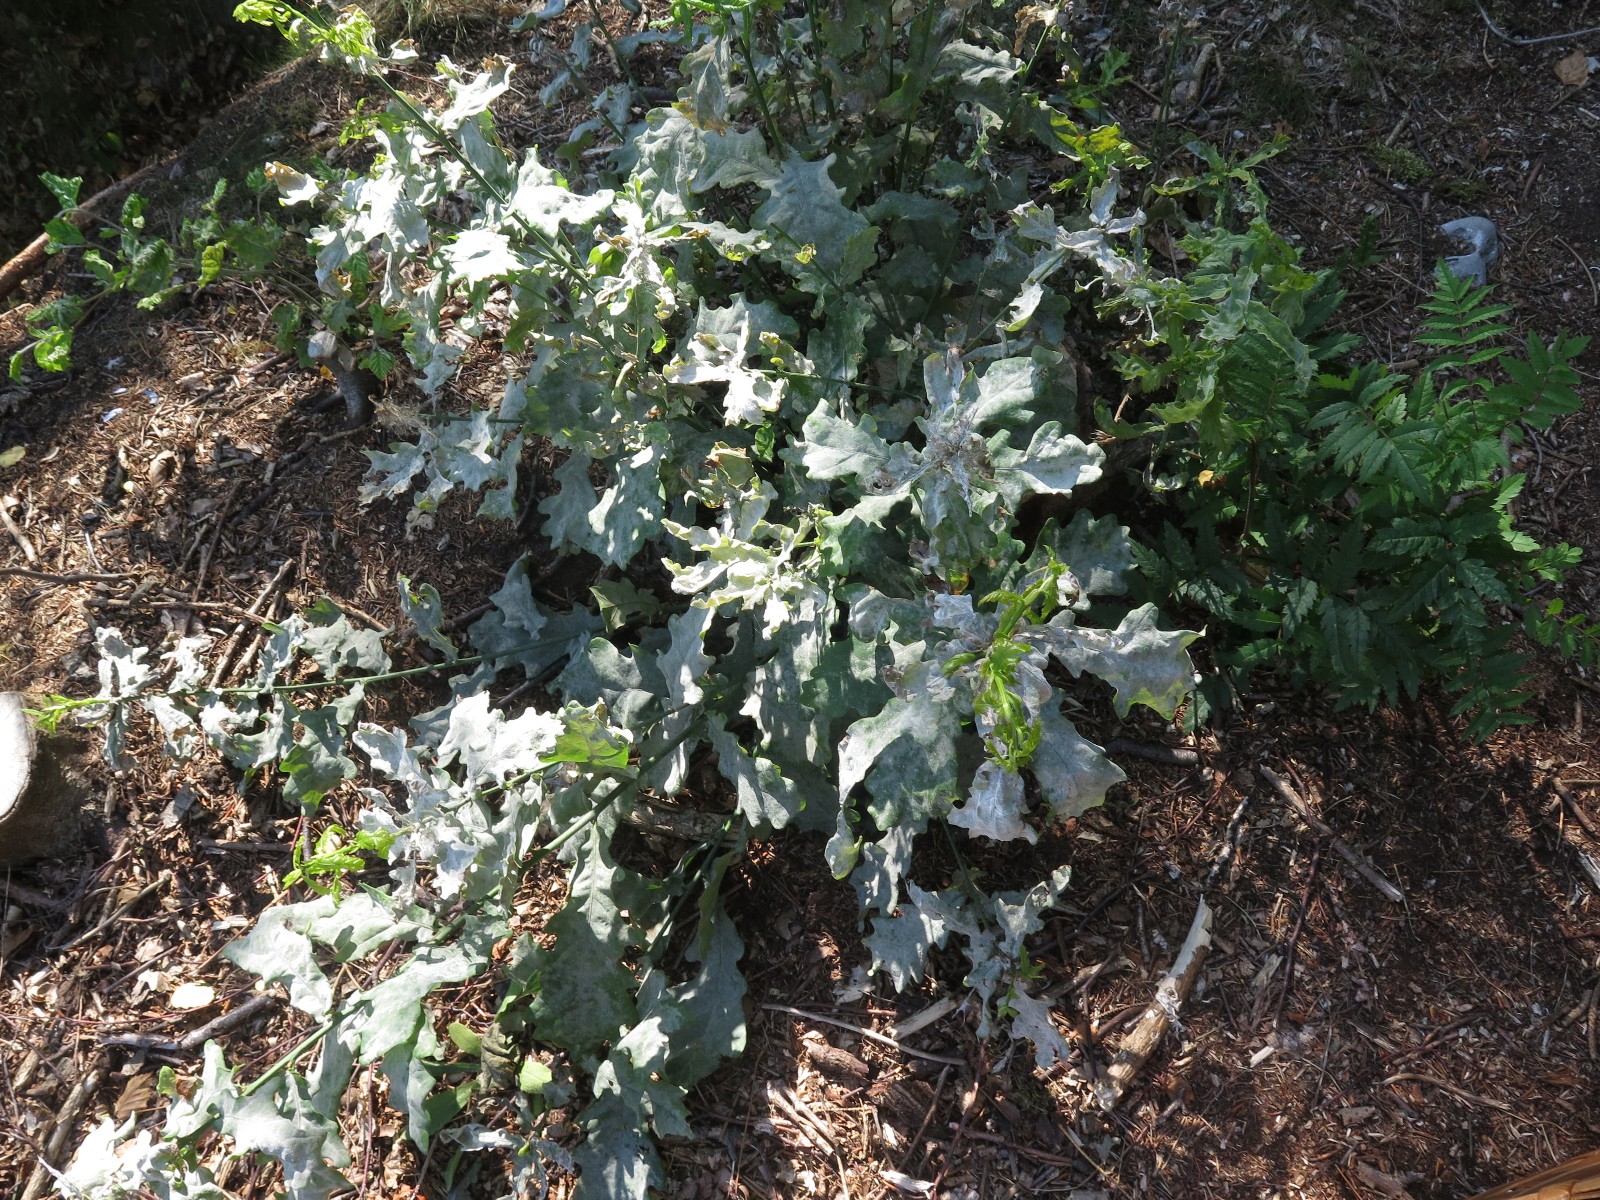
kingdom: Fungi
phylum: Ascomycota
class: Leotiomycetes
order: Helotiales
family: Erysiphaceae
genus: Erysiphe
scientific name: Erysiphe alphitoides
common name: ege-meldug
